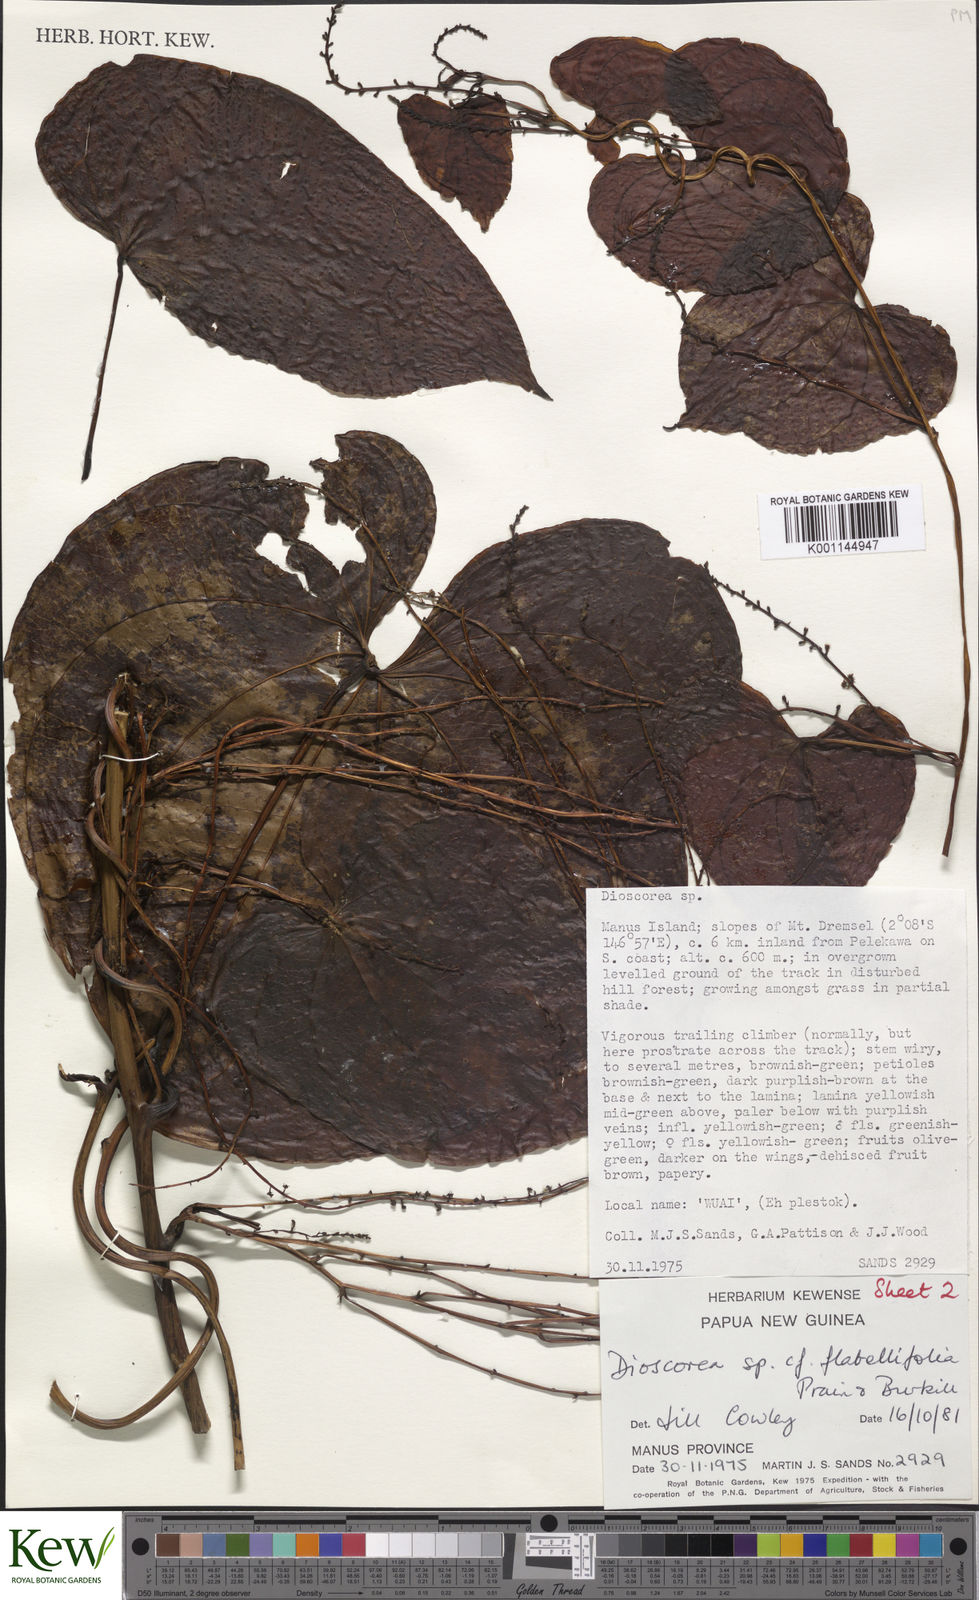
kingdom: Plantae
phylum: Tracheophyta
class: Liliopsida
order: Dioscoreales
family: Dioscoreaceae
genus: Dioscorea
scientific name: Dioscorea flabellifolia
